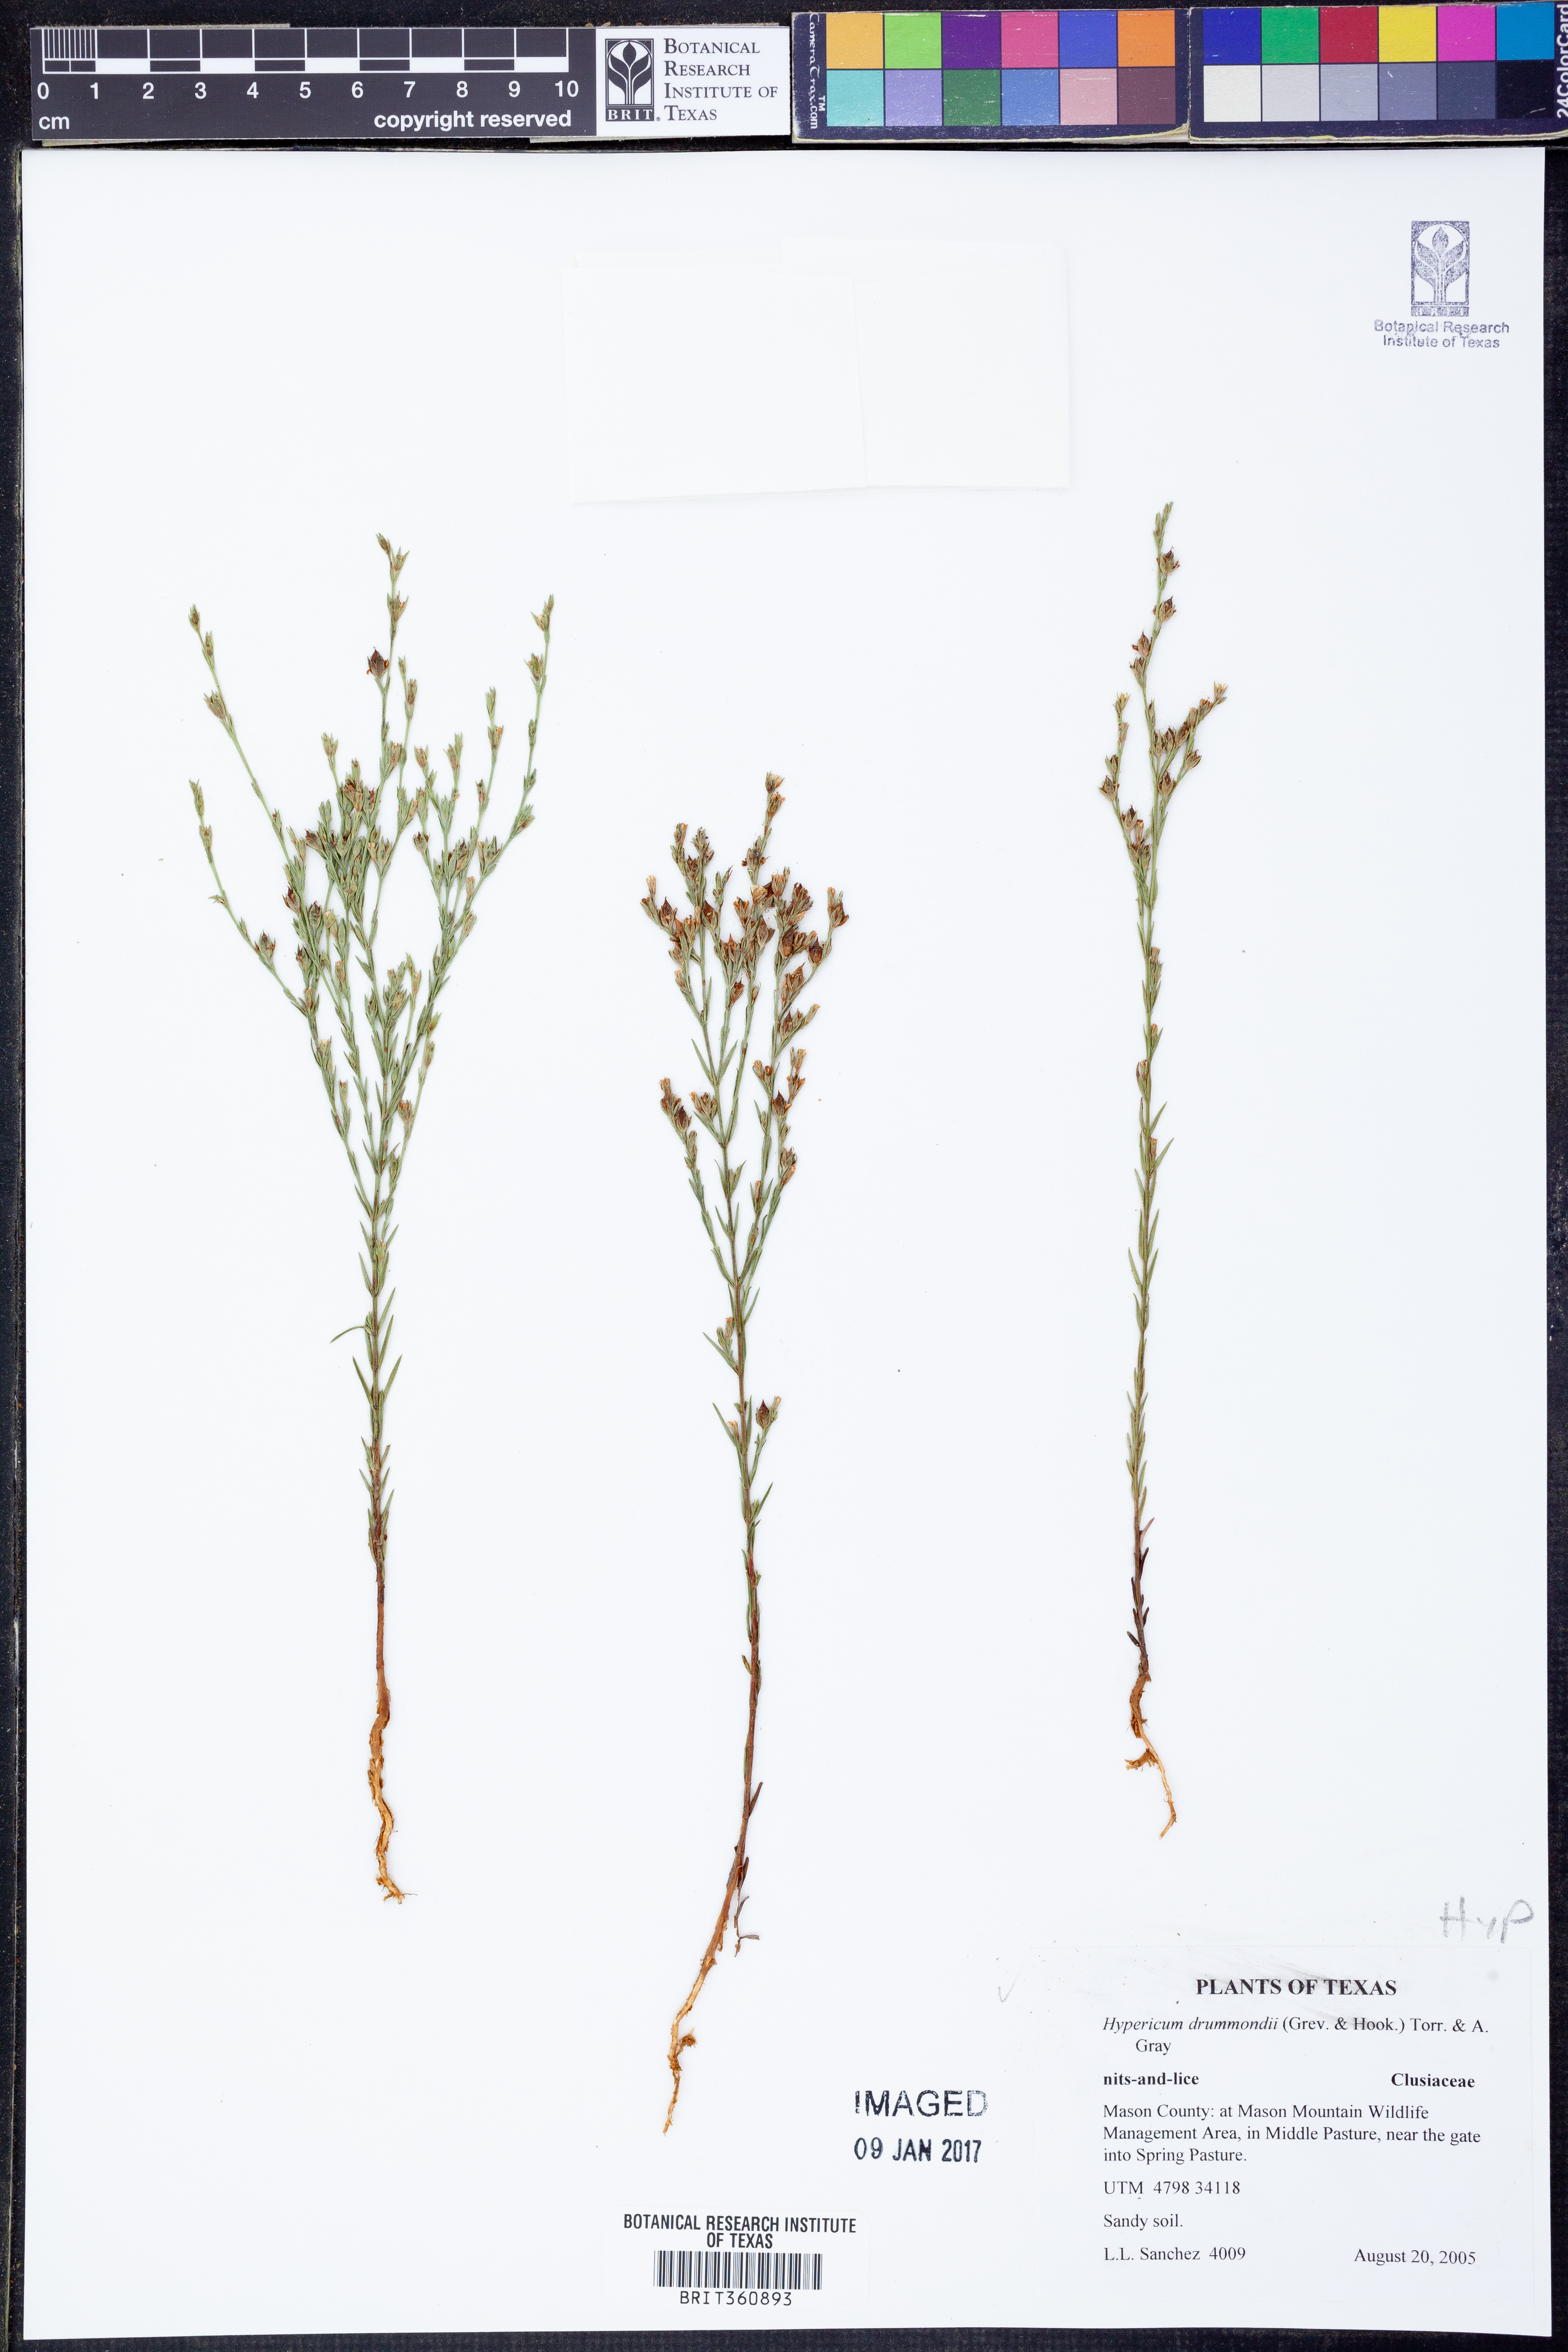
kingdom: Plantae
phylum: Tracheophyta
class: Magnoliopsida
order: Malpighiales
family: Hypericaceae
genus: Hypericum
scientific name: Hypericum drummondii
